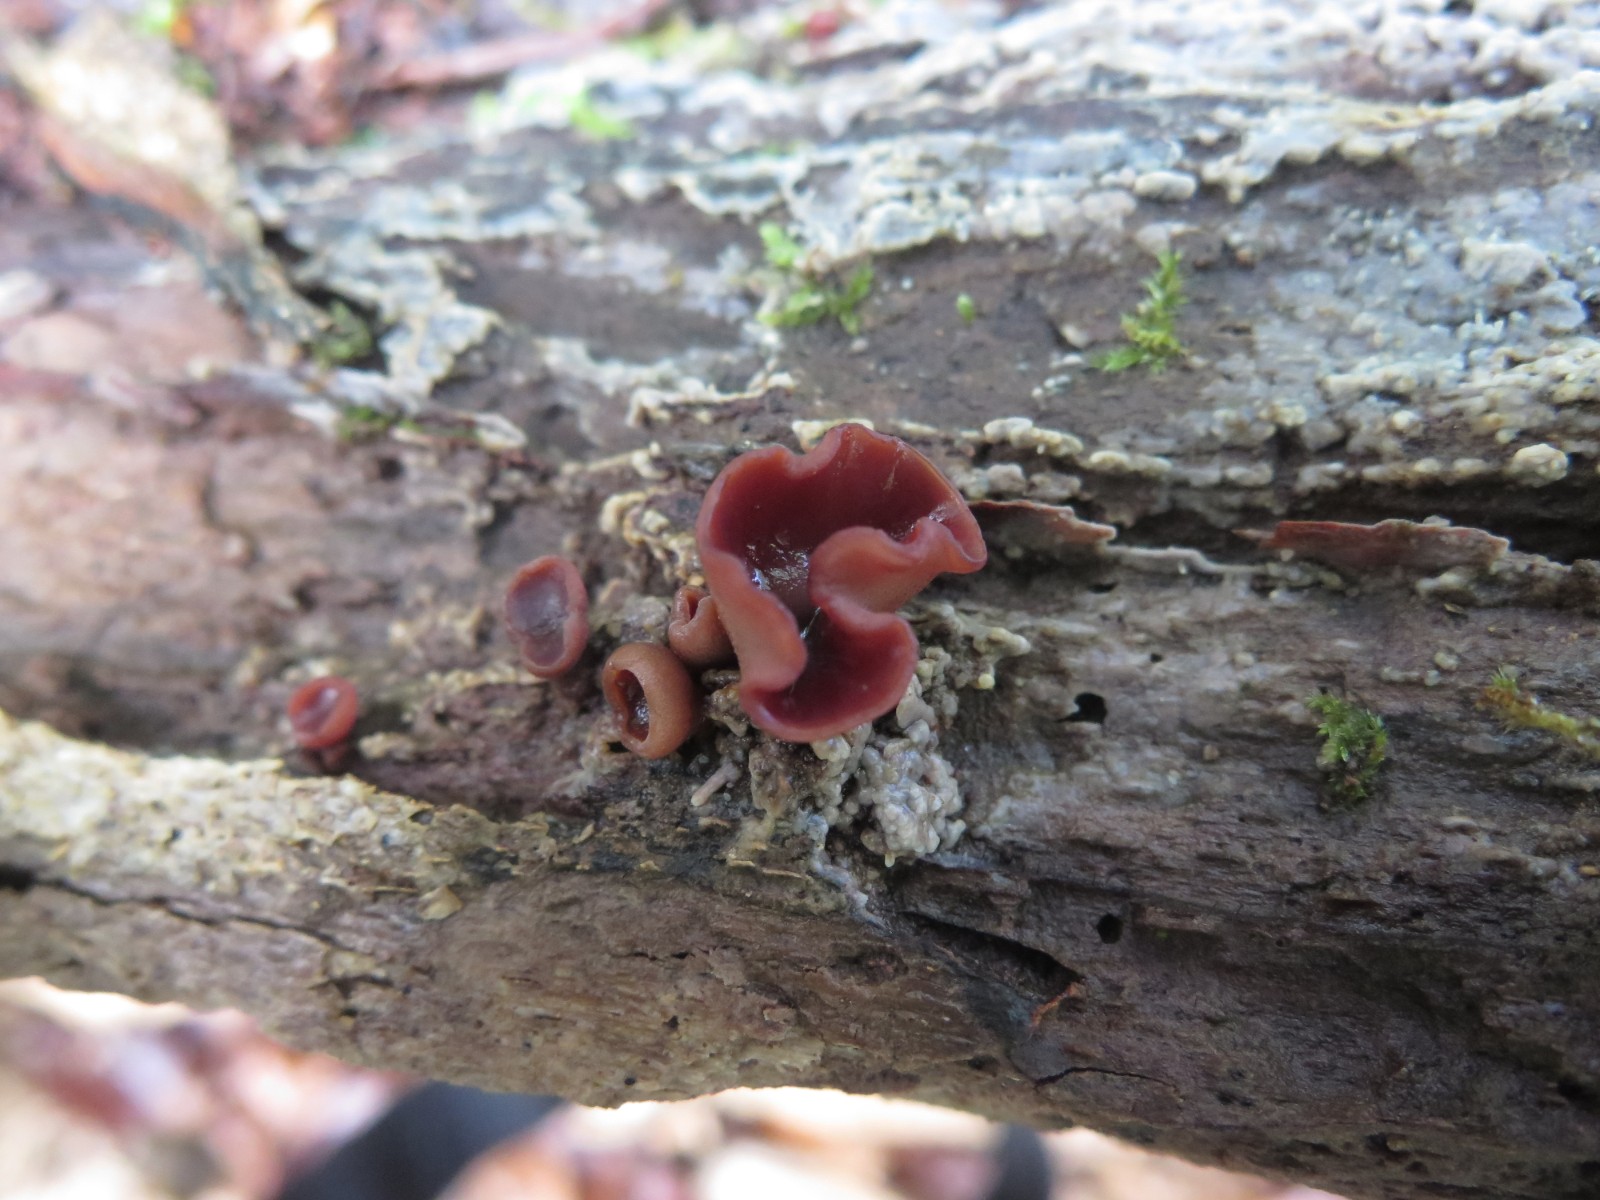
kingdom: Fungi
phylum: Ascomycota
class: Leotiomycetes
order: Helotiales
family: Gelatinodiscaceae
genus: Ascocoryne
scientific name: Ascocoryne sarcoides
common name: rødlilla sejskive
